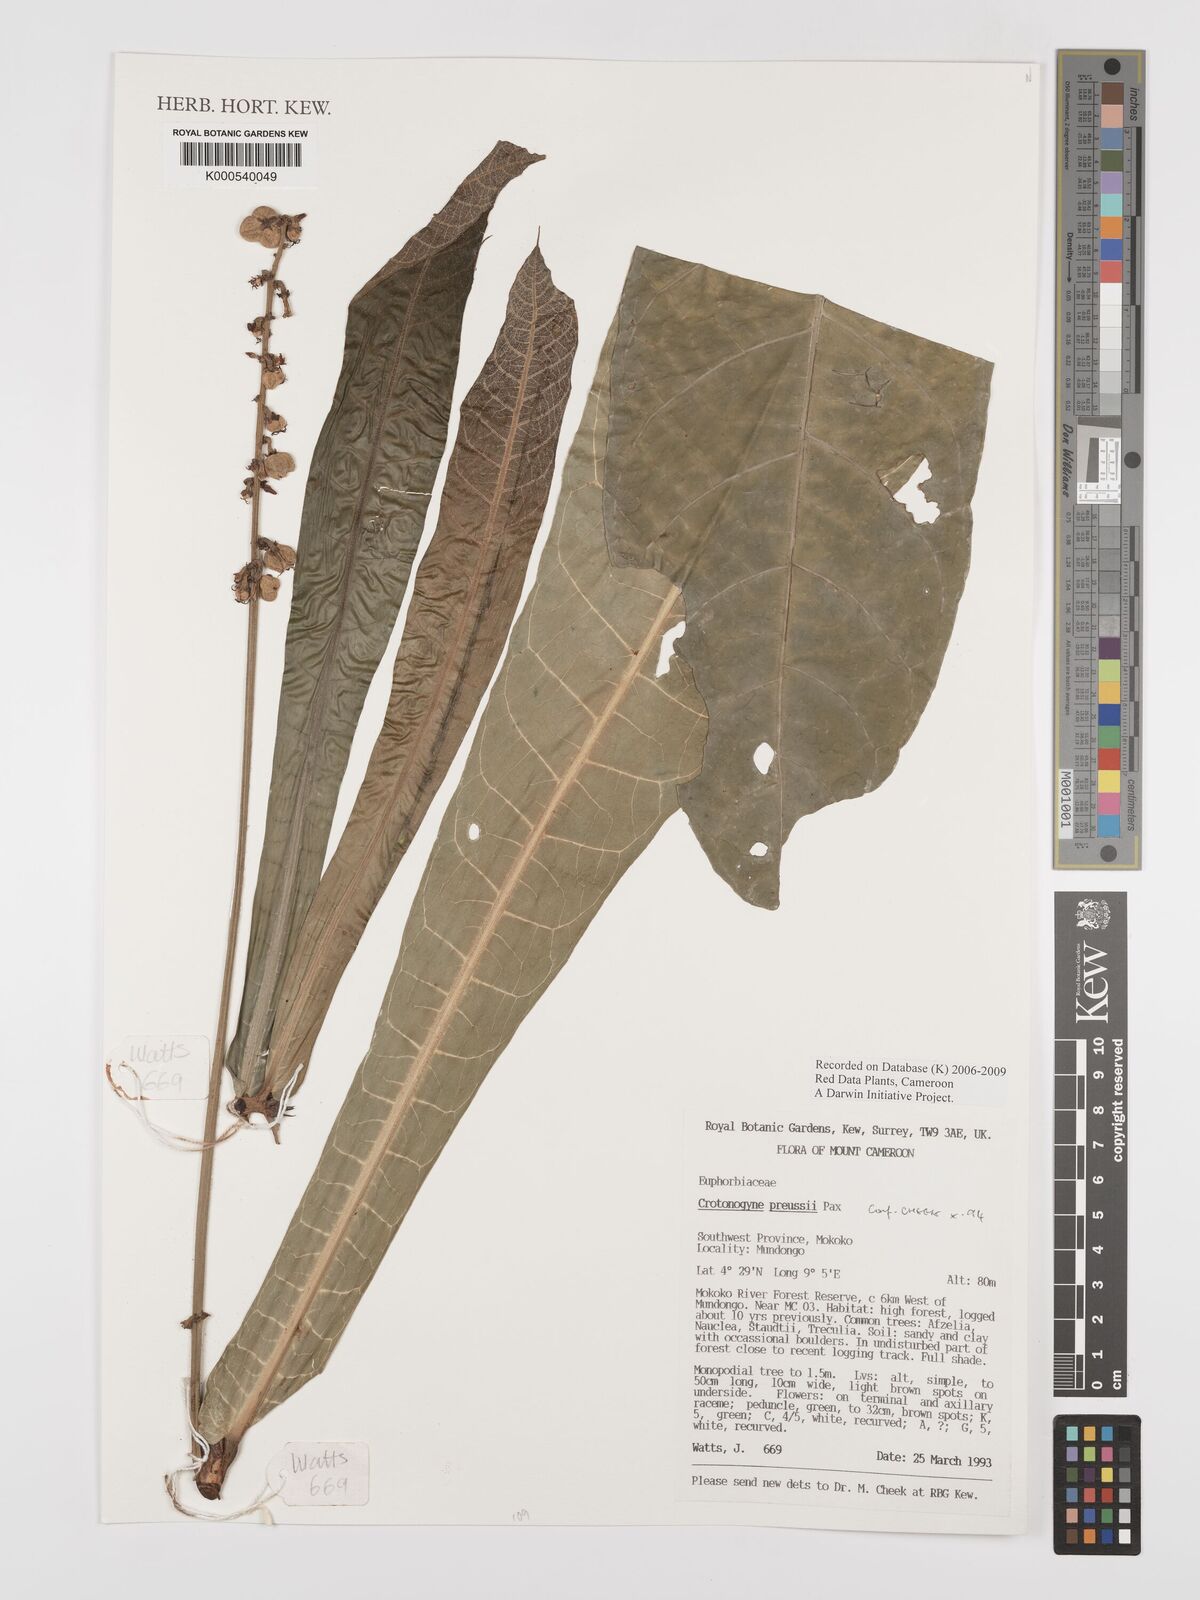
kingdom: Plantae
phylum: Tracheophyta
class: Magnoliopsida
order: Malpighiales
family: Euphorbiaceae
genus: Crotonogyne
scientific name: Crotonogyne preussii
